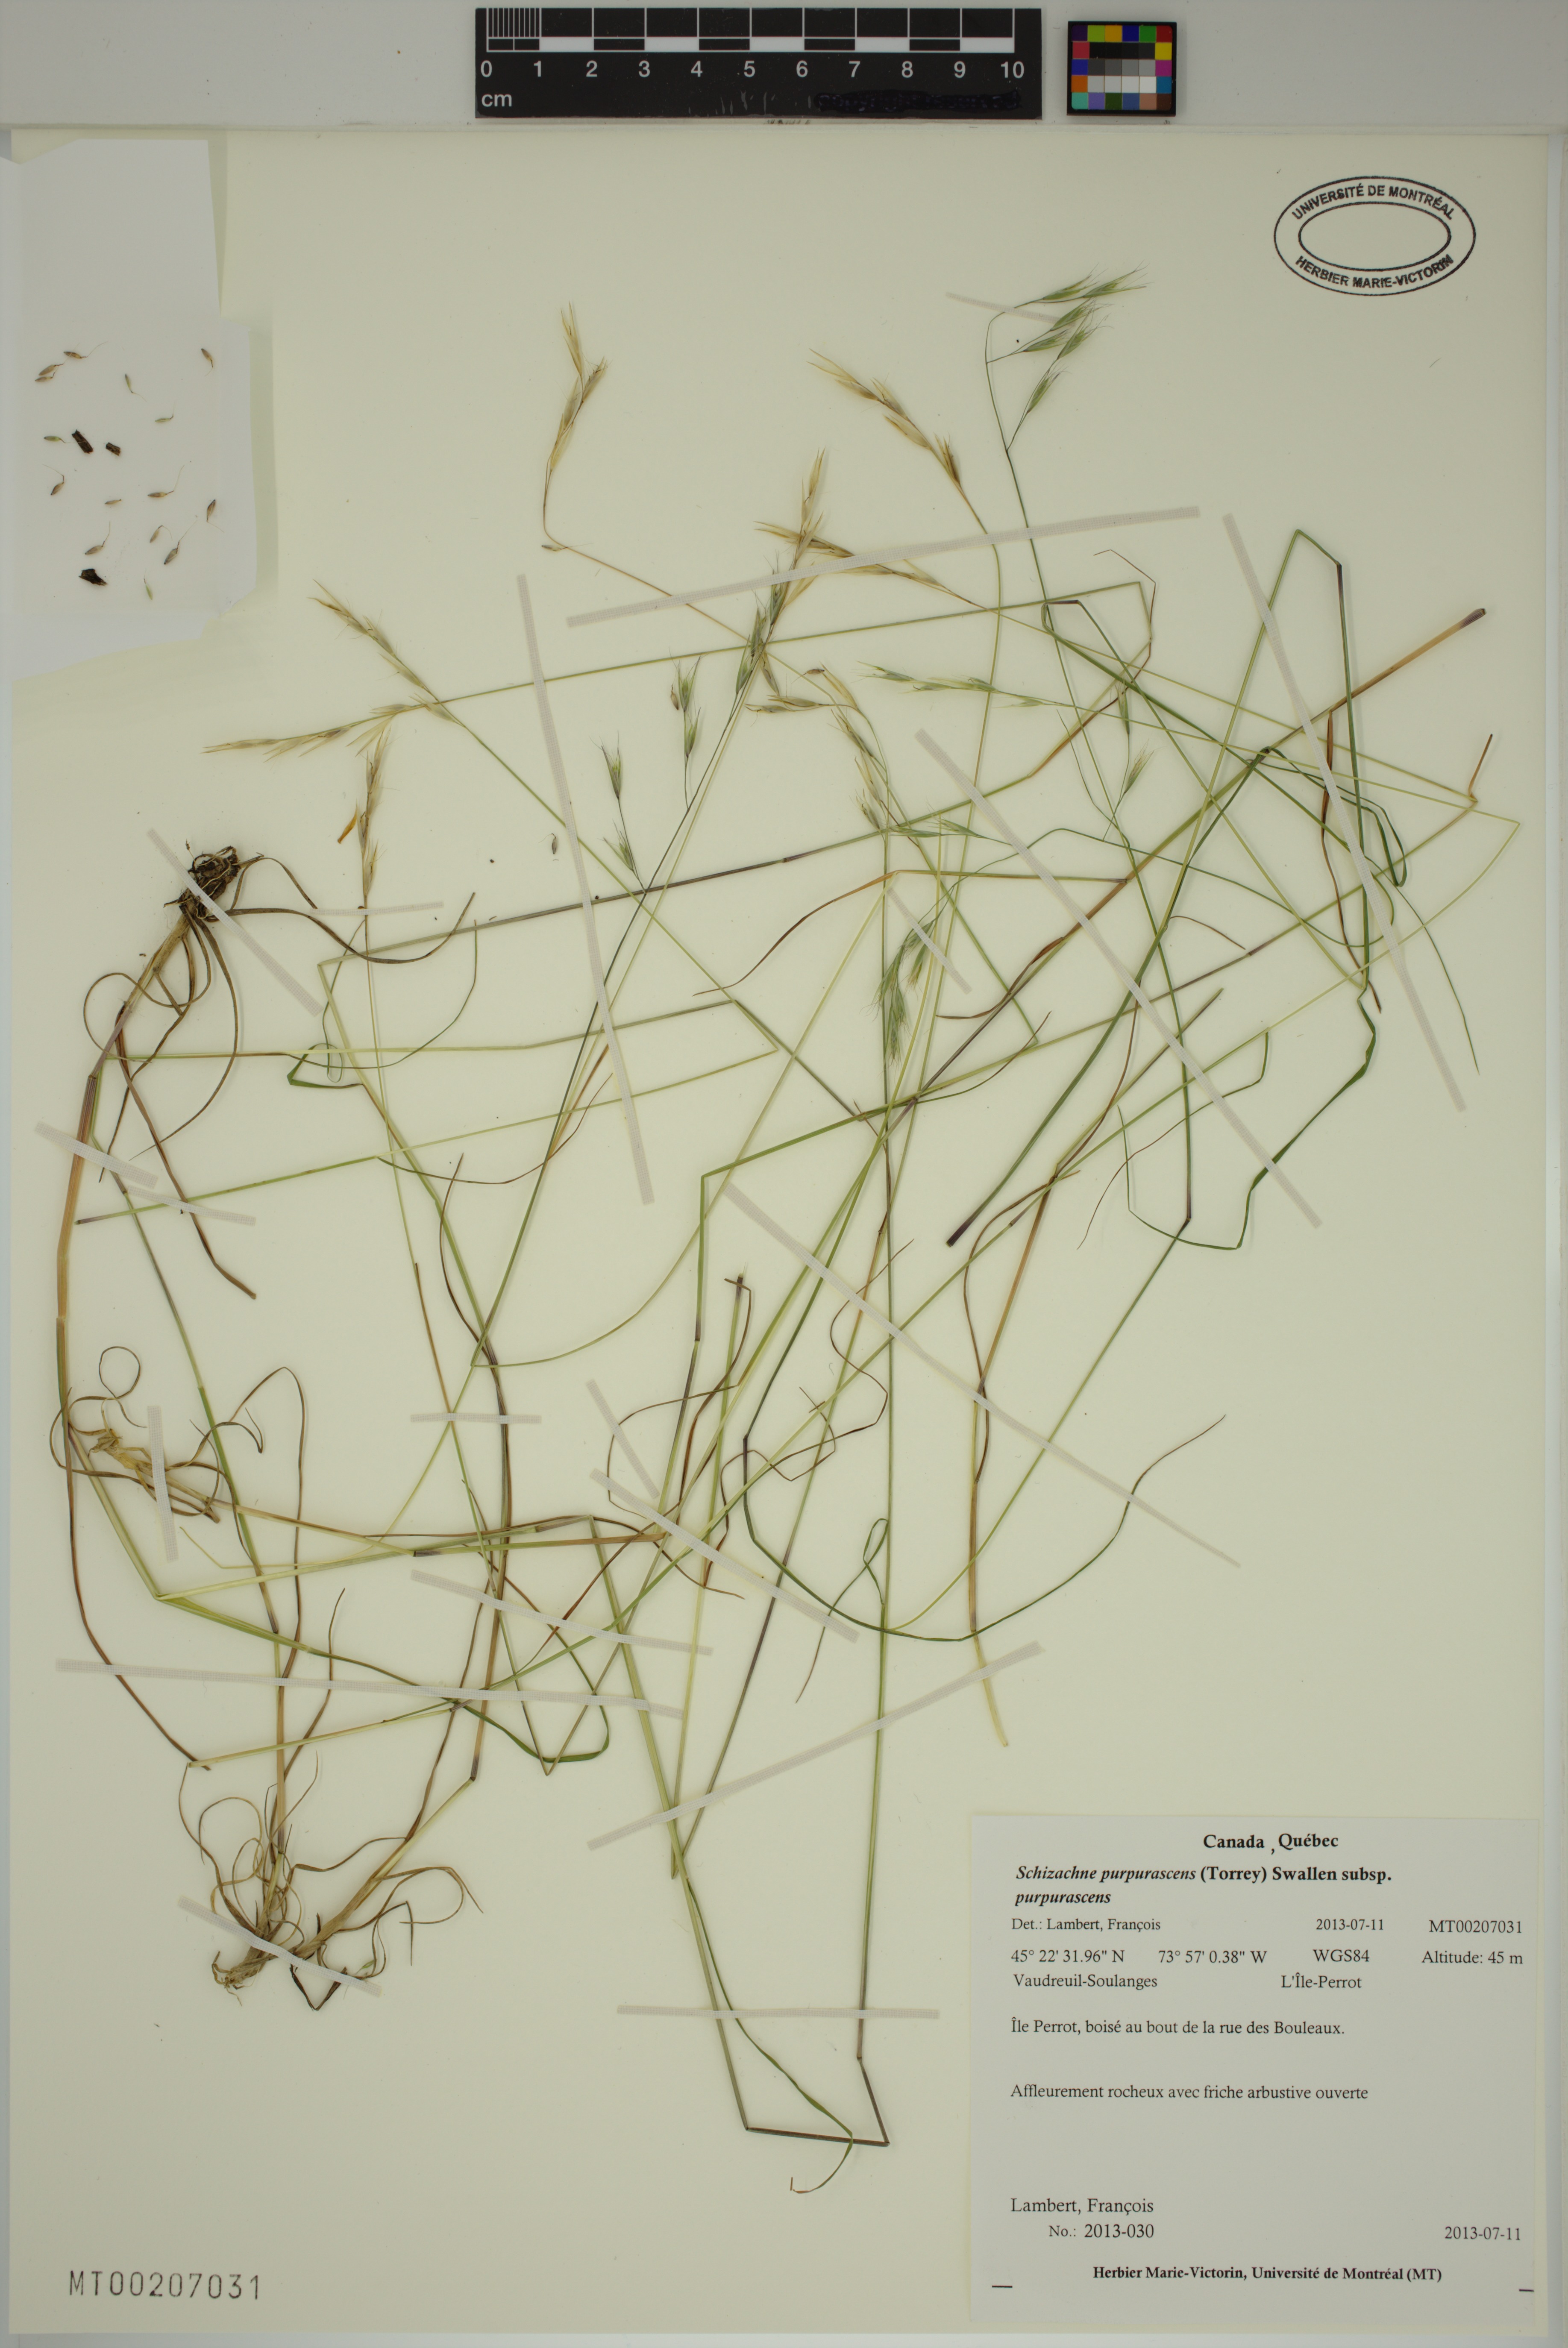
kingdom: Plantae
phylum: Tracheophyta
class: Liliopsida
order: Poales
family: Poaceae
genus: Schizachne
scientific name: Schizachne purpurascens
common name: False melic
